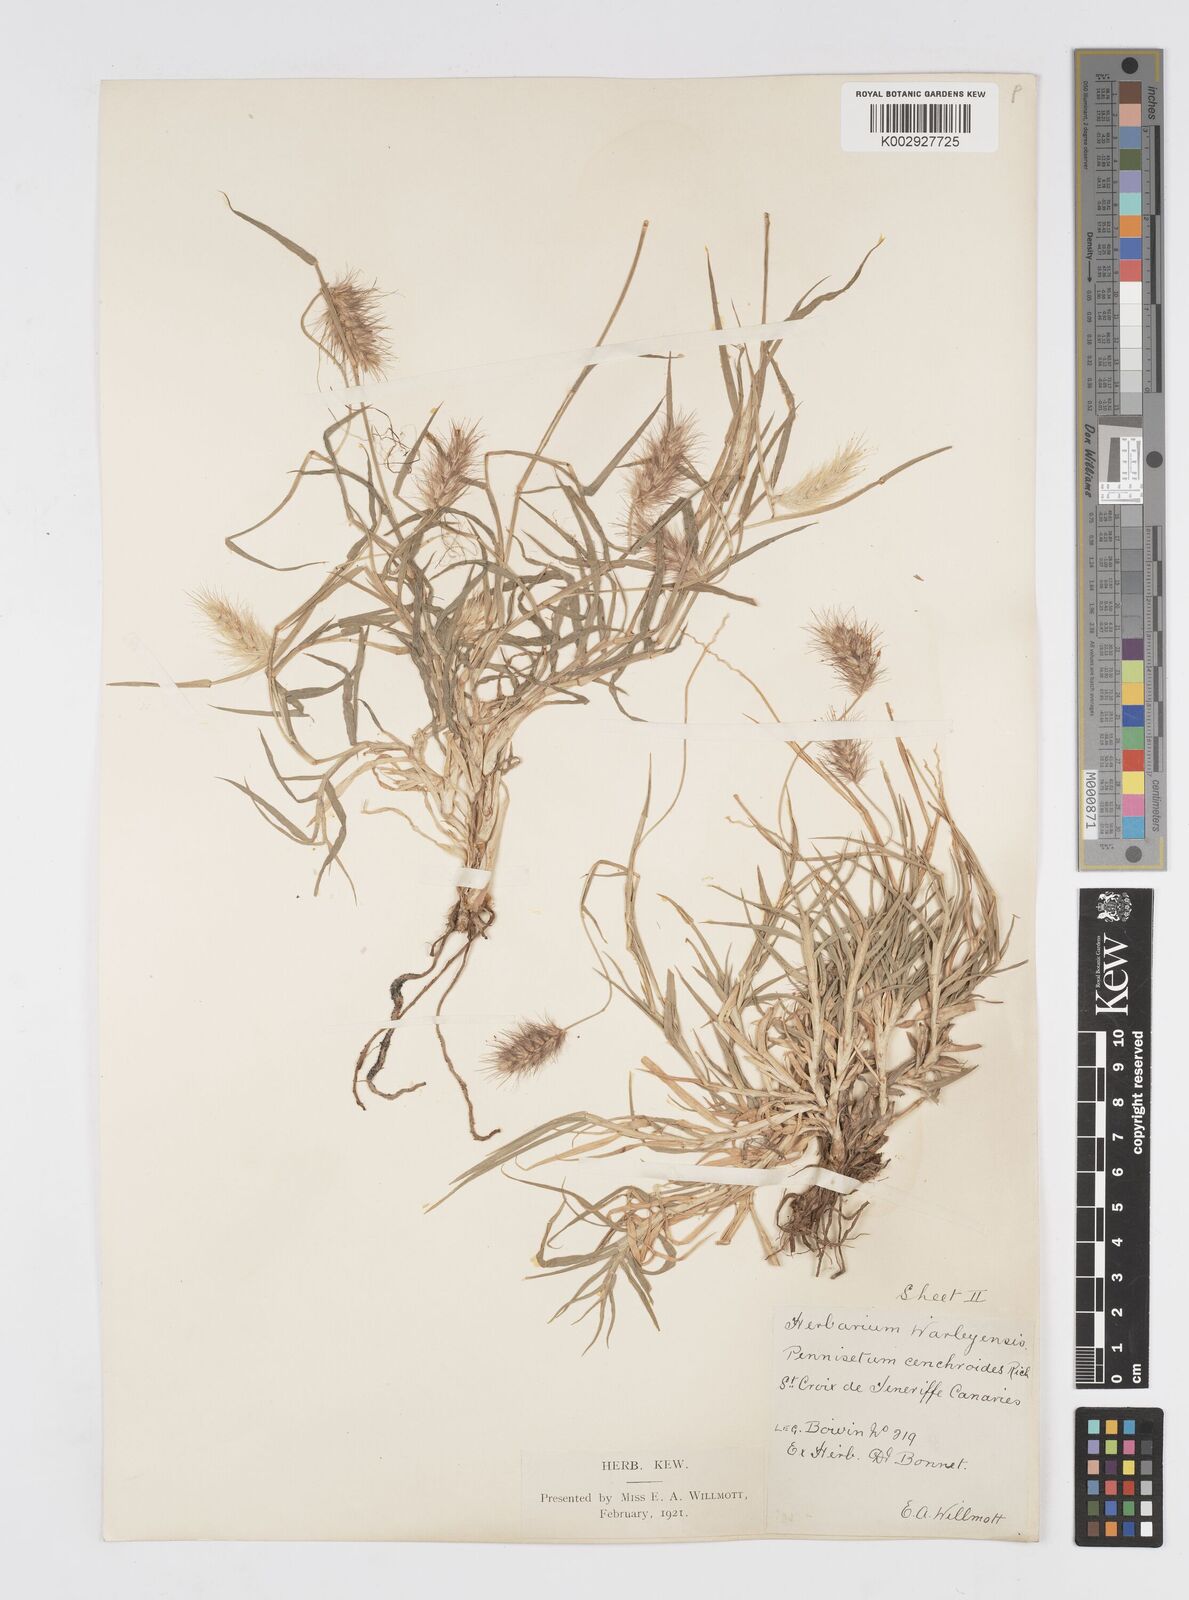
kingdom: Plantae
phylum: Tracheophyta
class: Liliopsida
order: Poales
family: Poaceae
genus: Cenchrus
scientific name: Cenchrus ciliaris
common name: Buffelgrass
